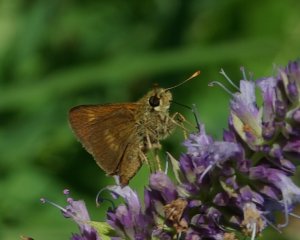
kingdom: Animalia
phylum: Arthropoda
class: Insecta
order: Lepidoptera
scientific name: Lepidoptera
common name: Butterflies
